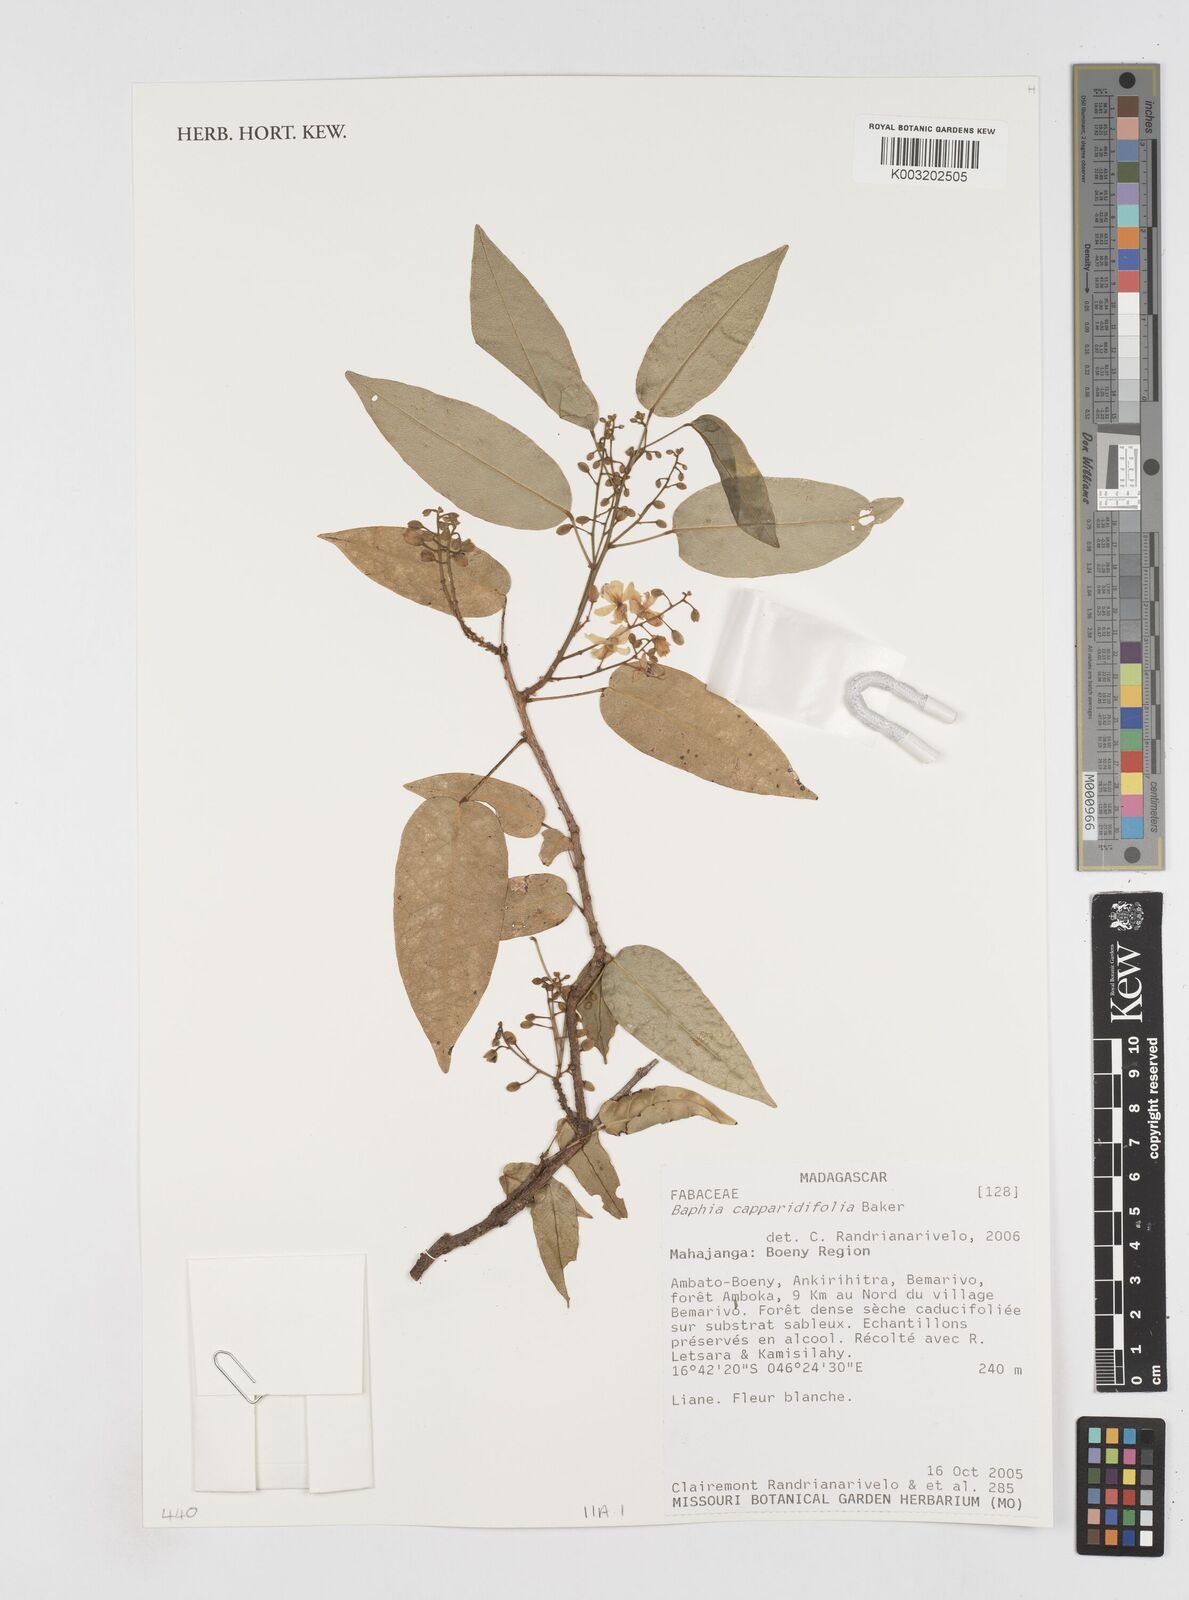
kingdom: Plantae
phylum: Tracheophyta
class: Magnoliopsida
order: Fabales
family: Fabaceae
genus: Baphia
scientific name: Baphia capparidifolia
